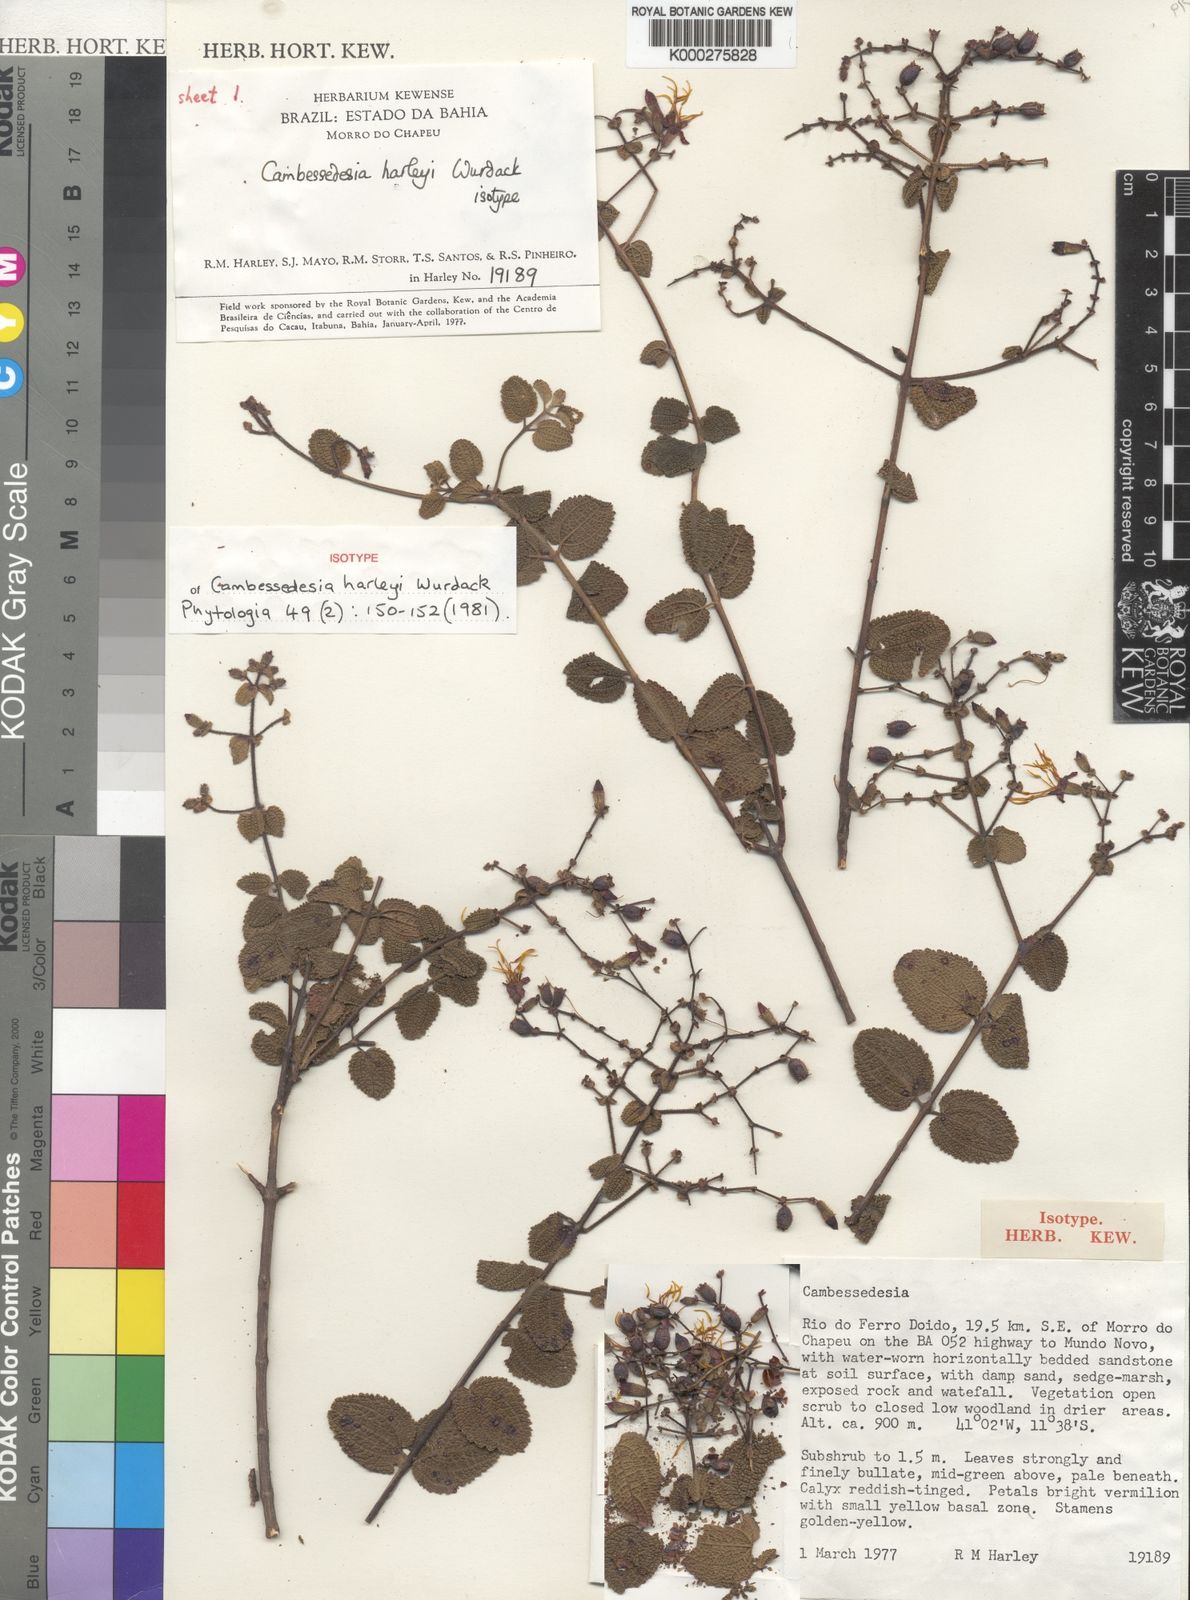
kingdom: Plantae
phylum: Tracheophyta
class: Magnoliopsida
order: Myrtales
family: Melastomataceae
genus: Cambessedesia
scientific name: Cambessedesia harleyi
